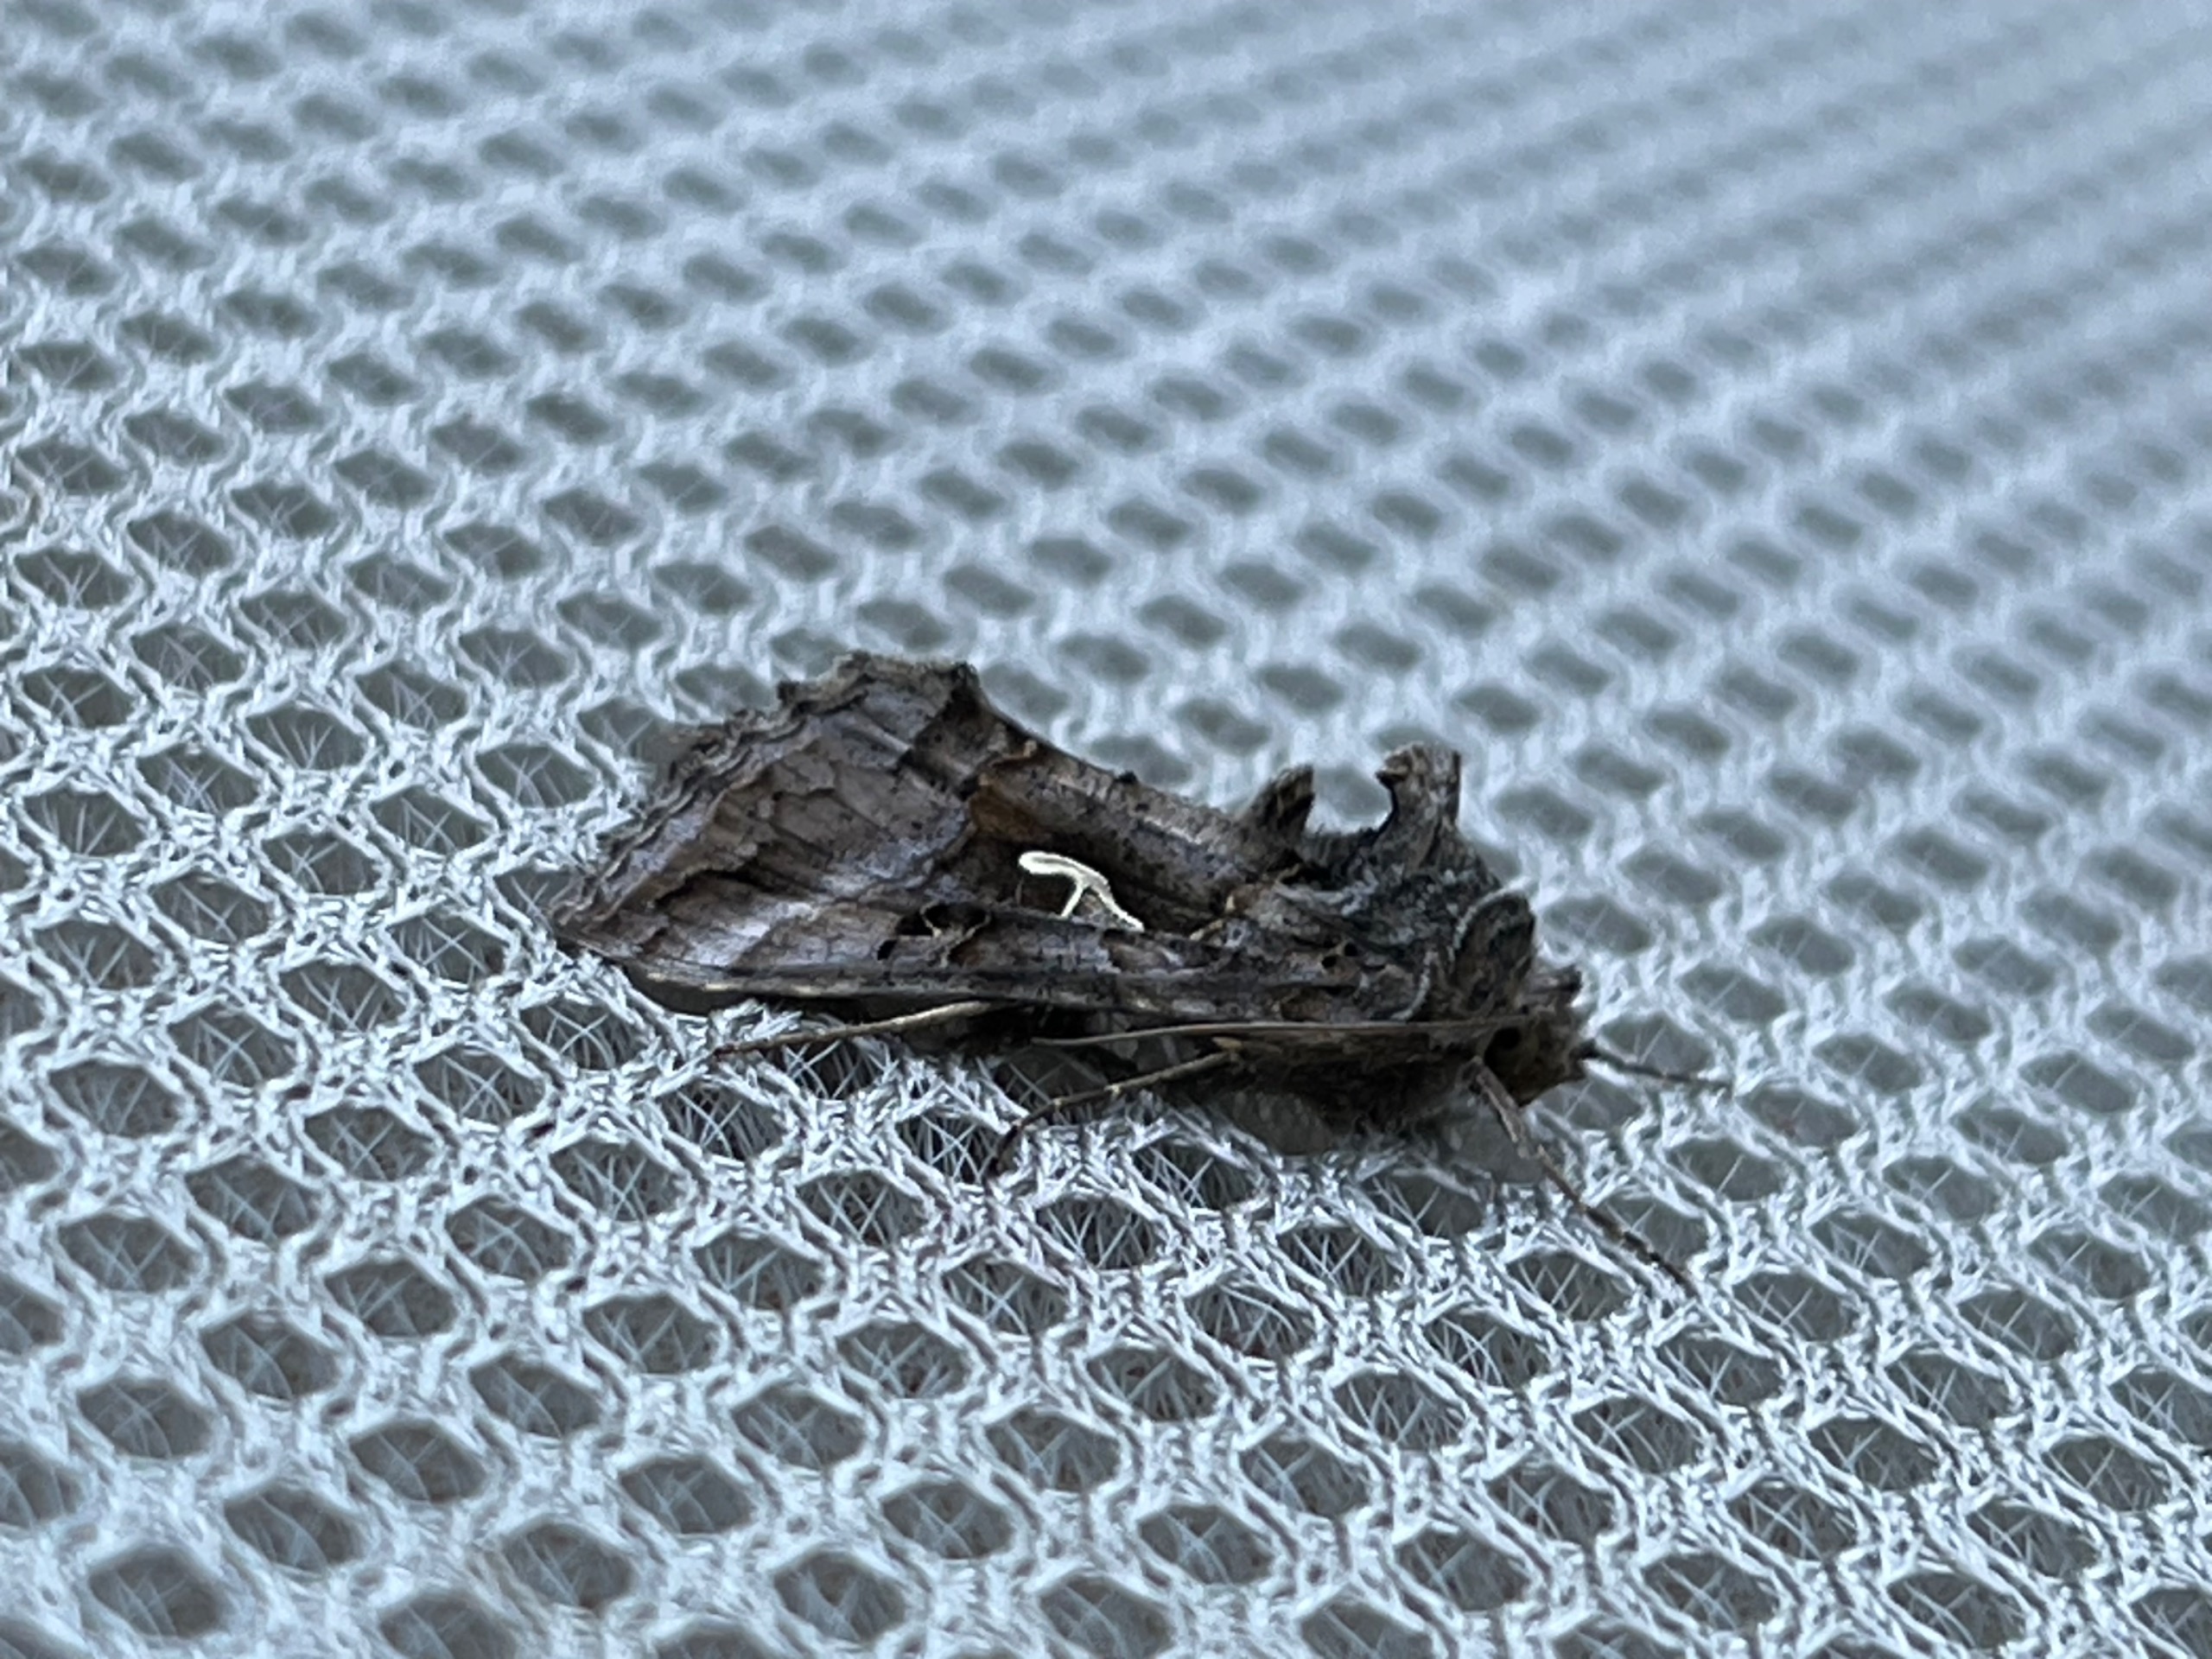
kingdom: Animalia
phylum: Arthropoda
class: Insecta
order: Lepidoptera
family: Noctuidae
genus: Autographa
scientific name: Autographa gamma
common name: Gammaugle
